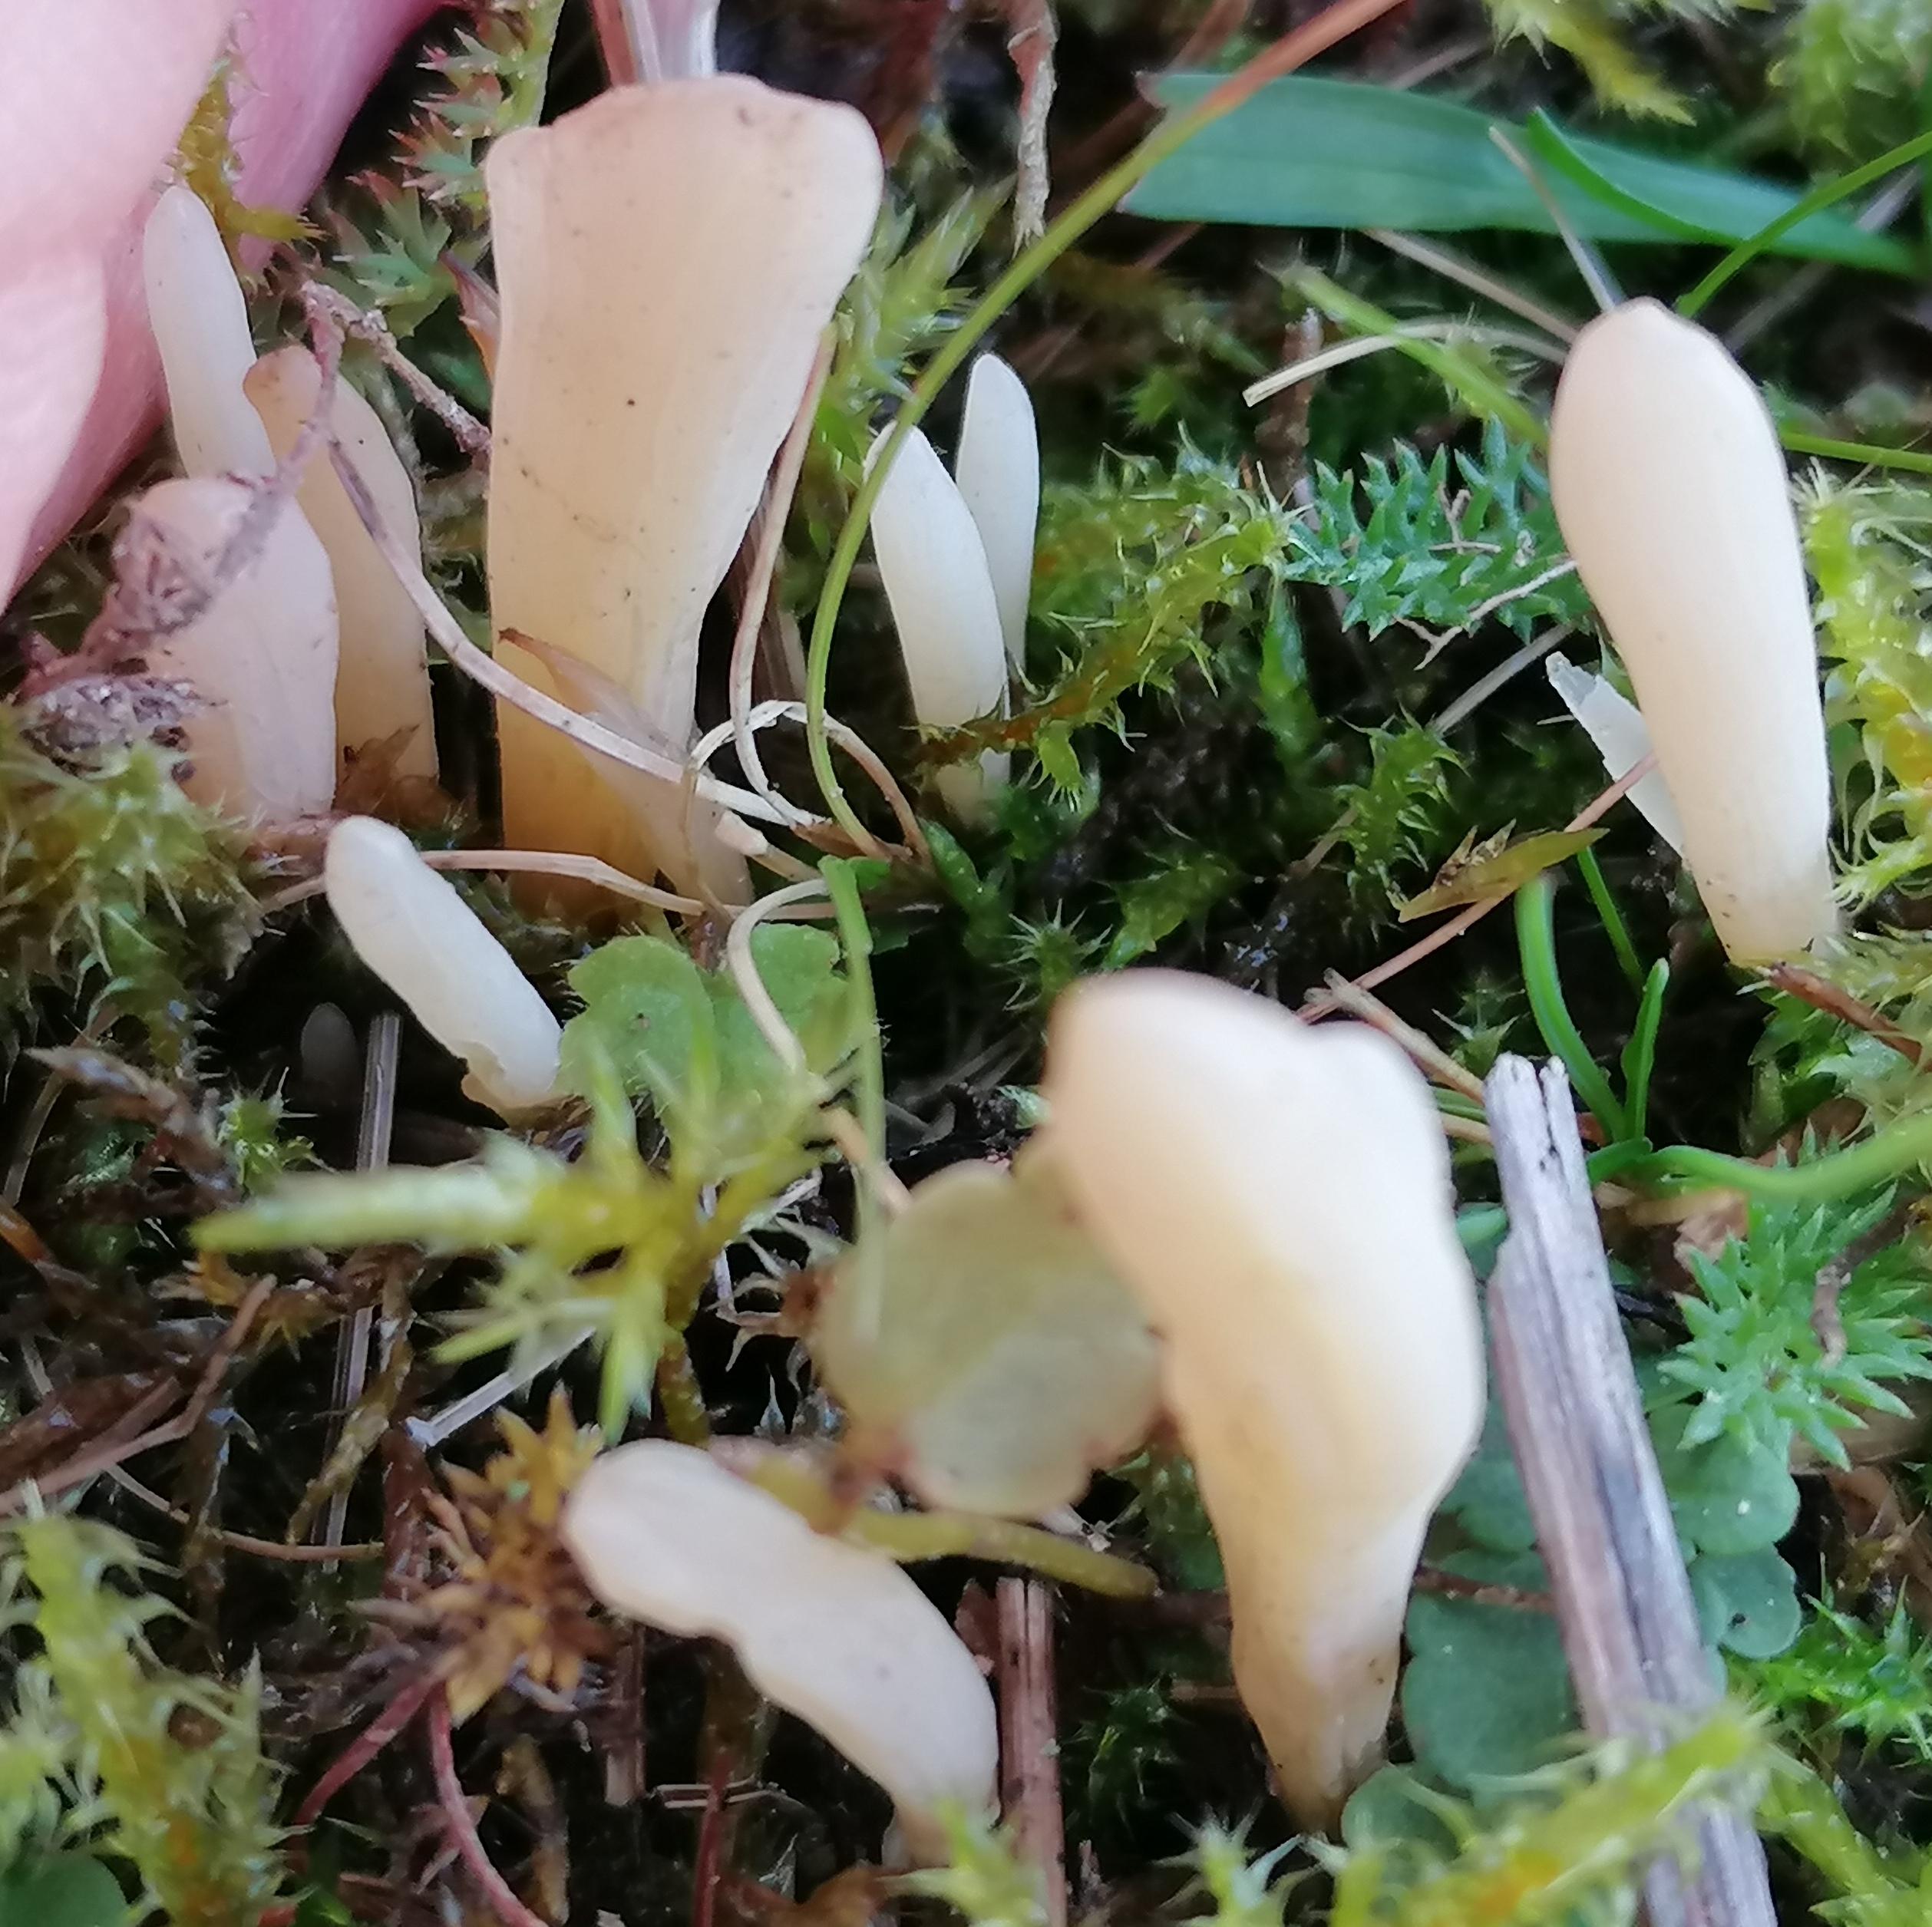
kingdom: Fungi
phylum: Basidiomycota
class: Agaricomycetes
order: Agaricales
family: Clavariaceae
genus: Clavaria
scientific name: Clavaria
